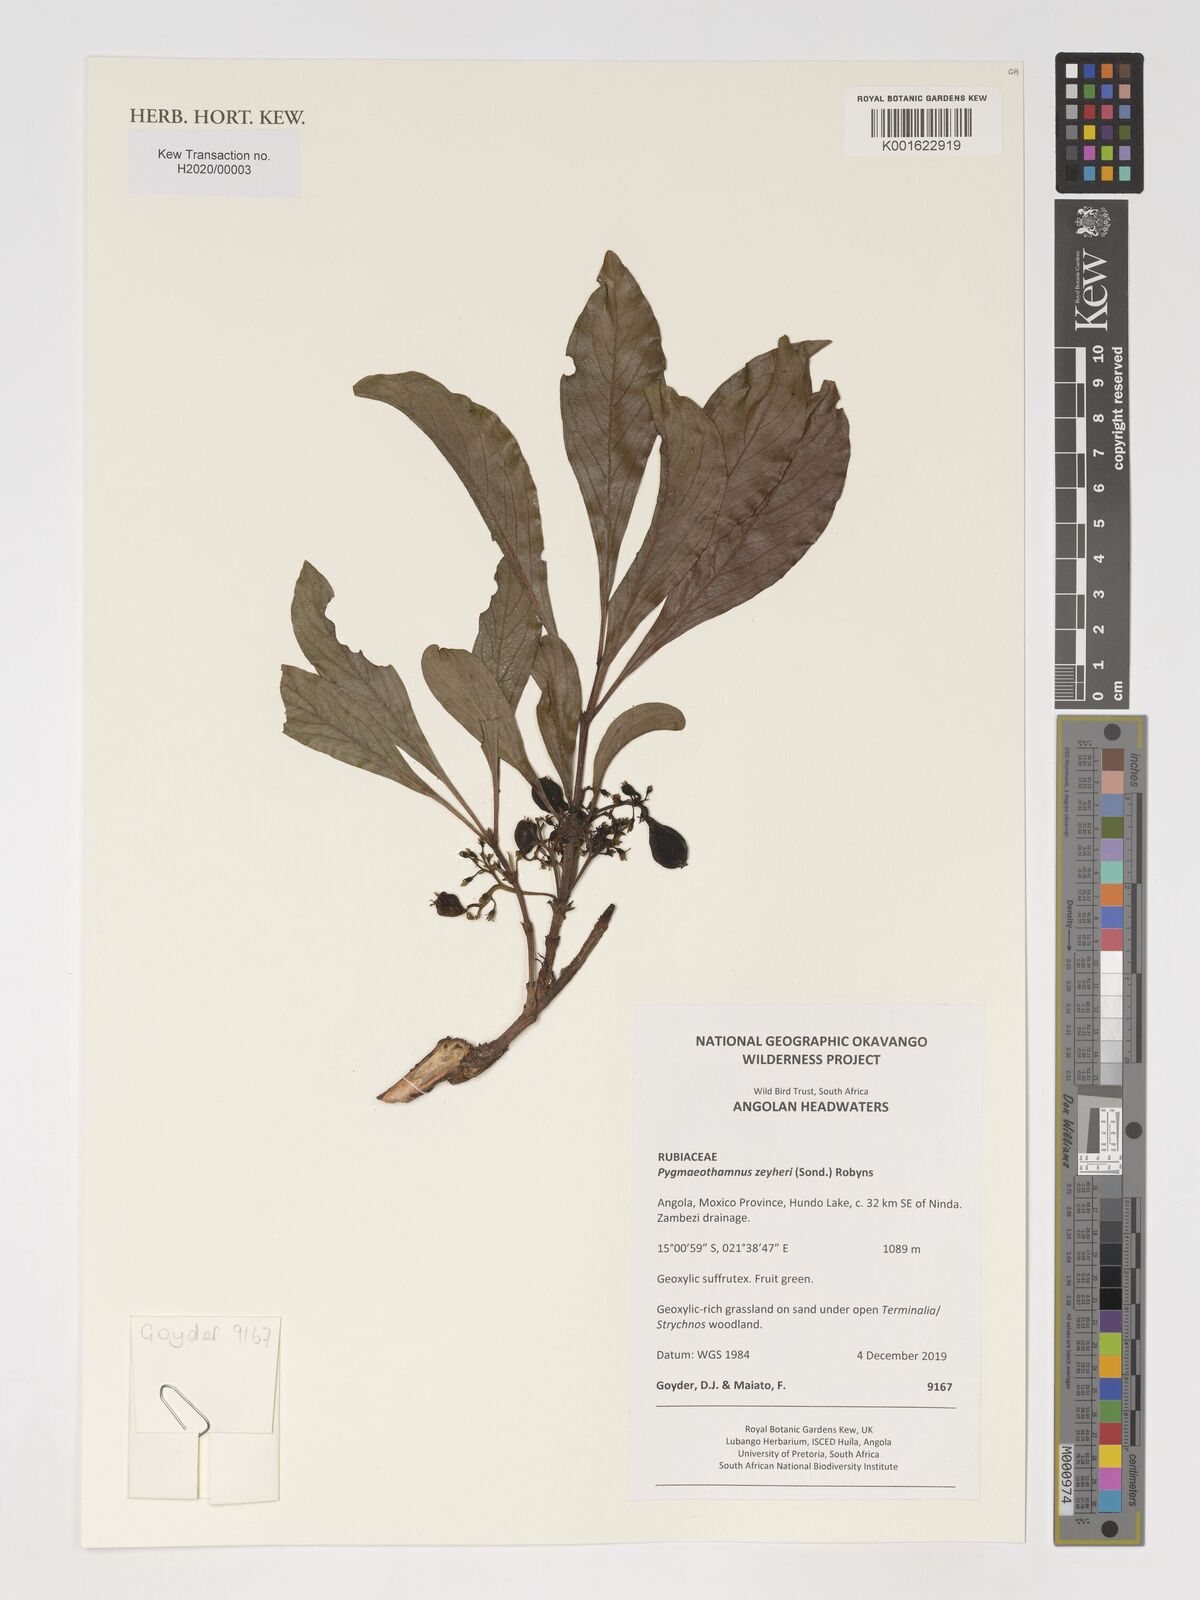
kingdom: Plantae
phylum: Tracheophyta
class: Magnoliopsida
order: Gentianales
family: Rubiaceae
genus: Pygmaeothamnus
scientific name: Pygmaeothamnus zeyheri
